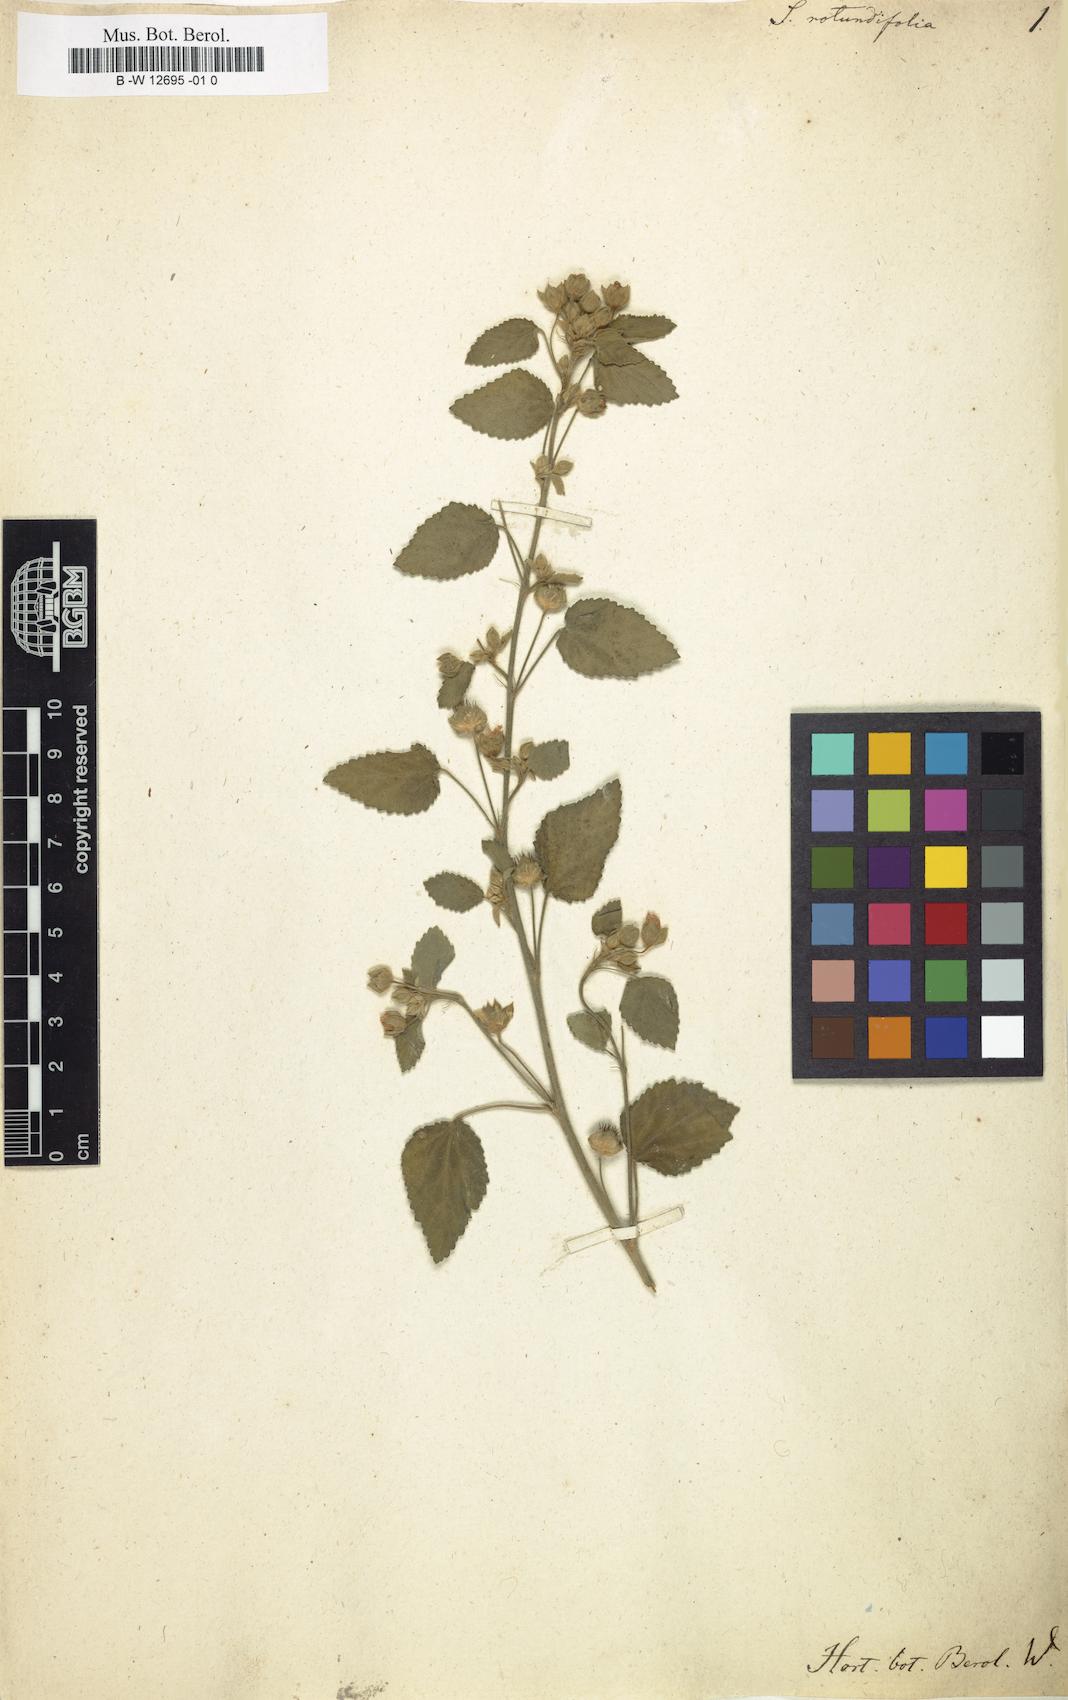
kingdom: Plantae
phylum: Tracheophyta
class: Magnoliopsida
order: Malvales
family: Malvaceae
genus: Sida
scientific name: Sida
